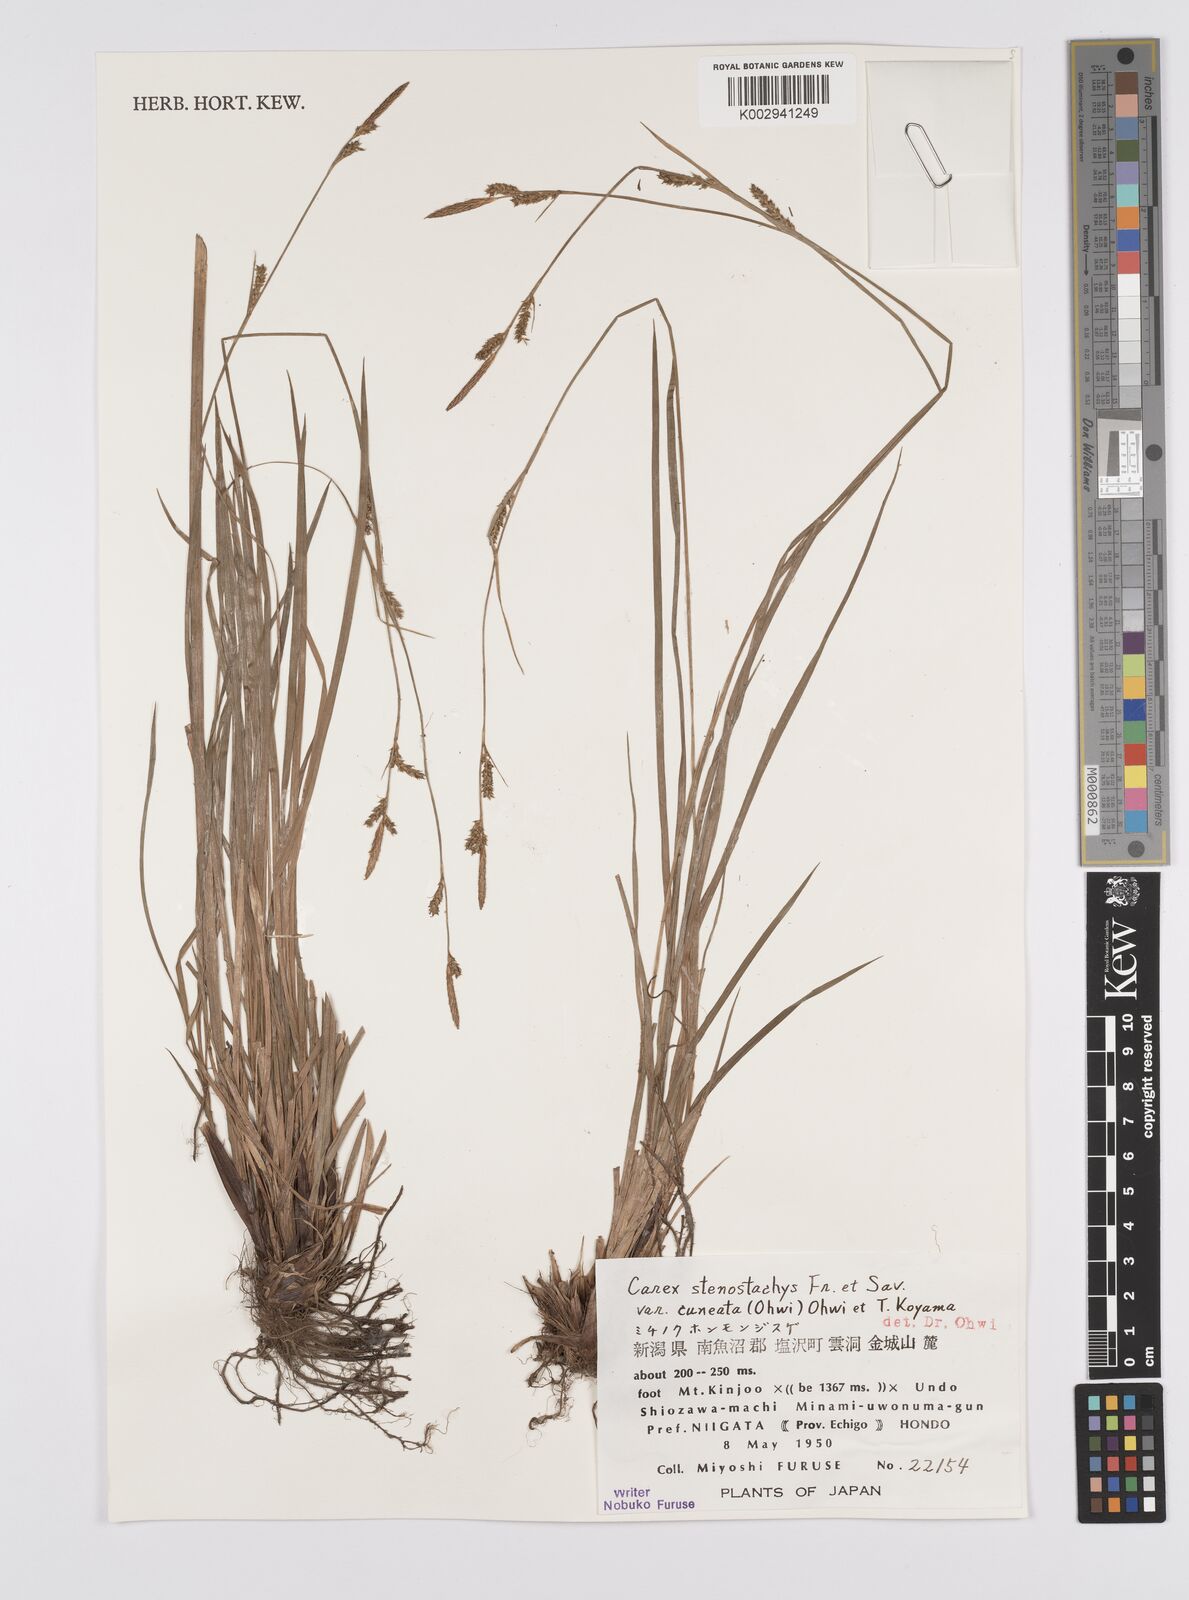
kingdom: Plantae
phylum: Tracheophyta
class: Liliopsida
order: Poales
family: Cyperaceae
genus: Carex
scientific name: Carex pisiformis
